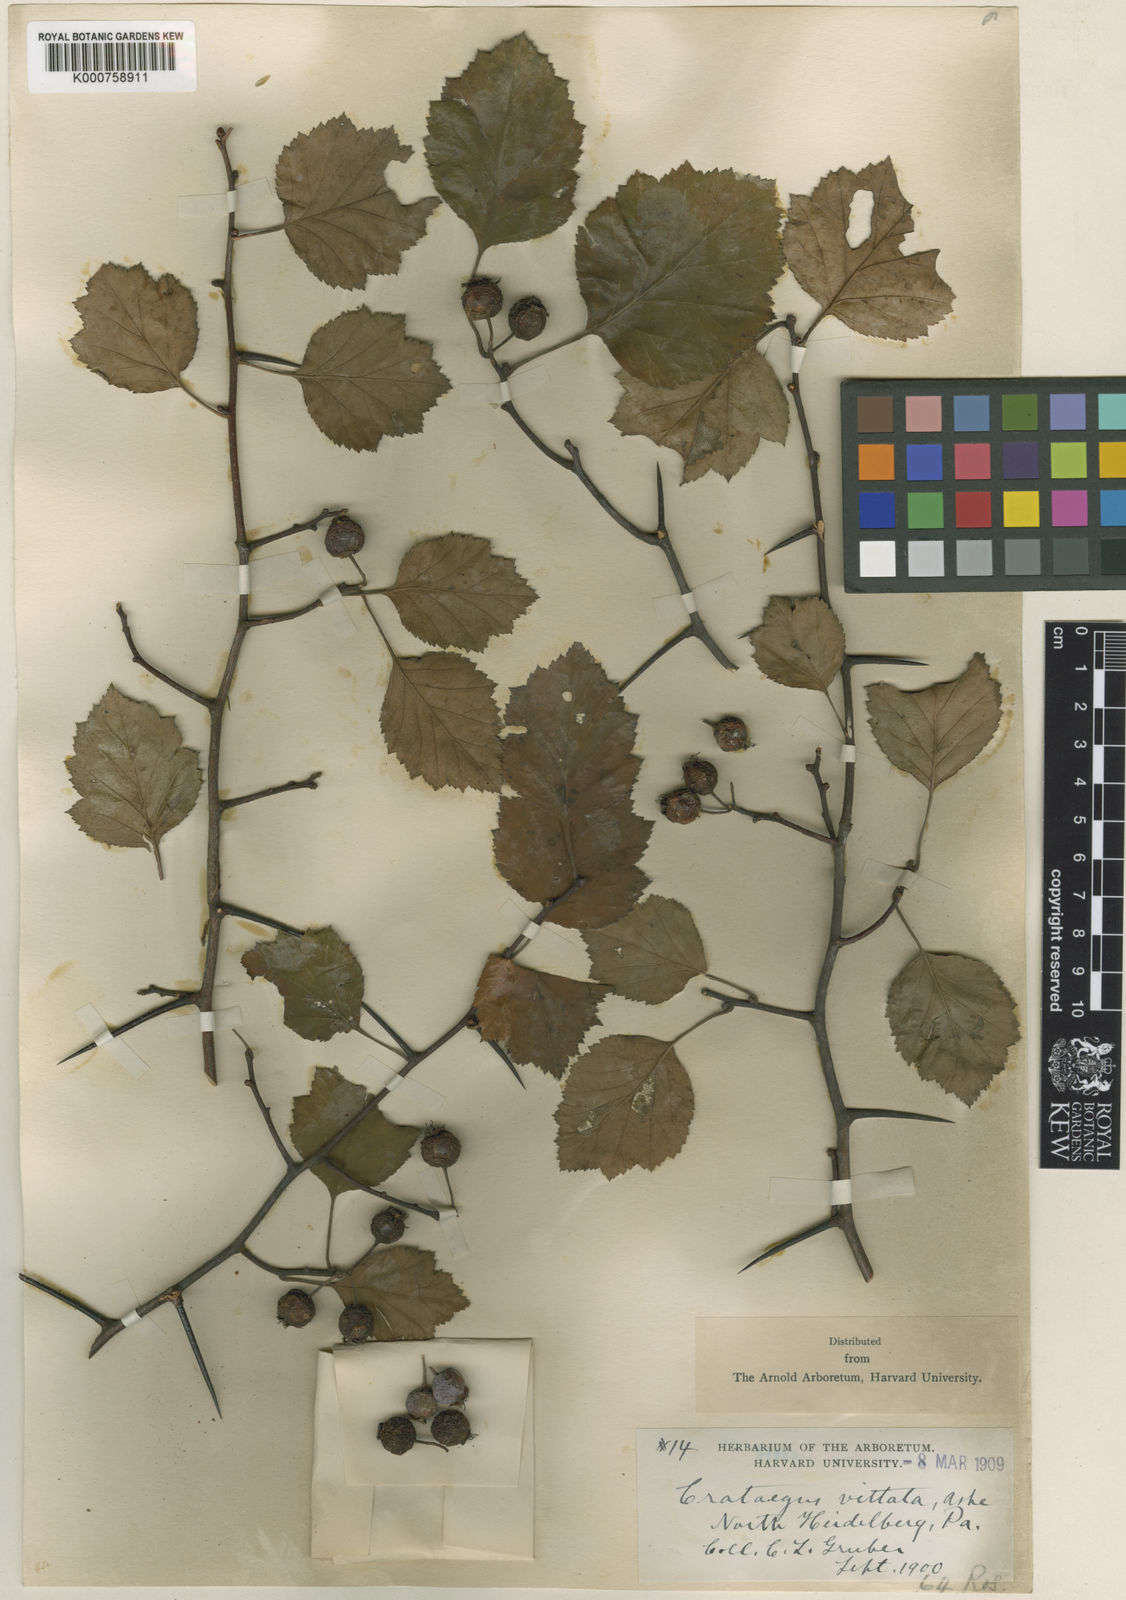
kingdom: Plantae
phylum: Tracheophyta
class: Magnoliopsida
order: Rosales
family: Rosaceae
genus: Crataegus
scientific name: Crataegus fluviatilis
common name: Fort sheridan hawthorn
